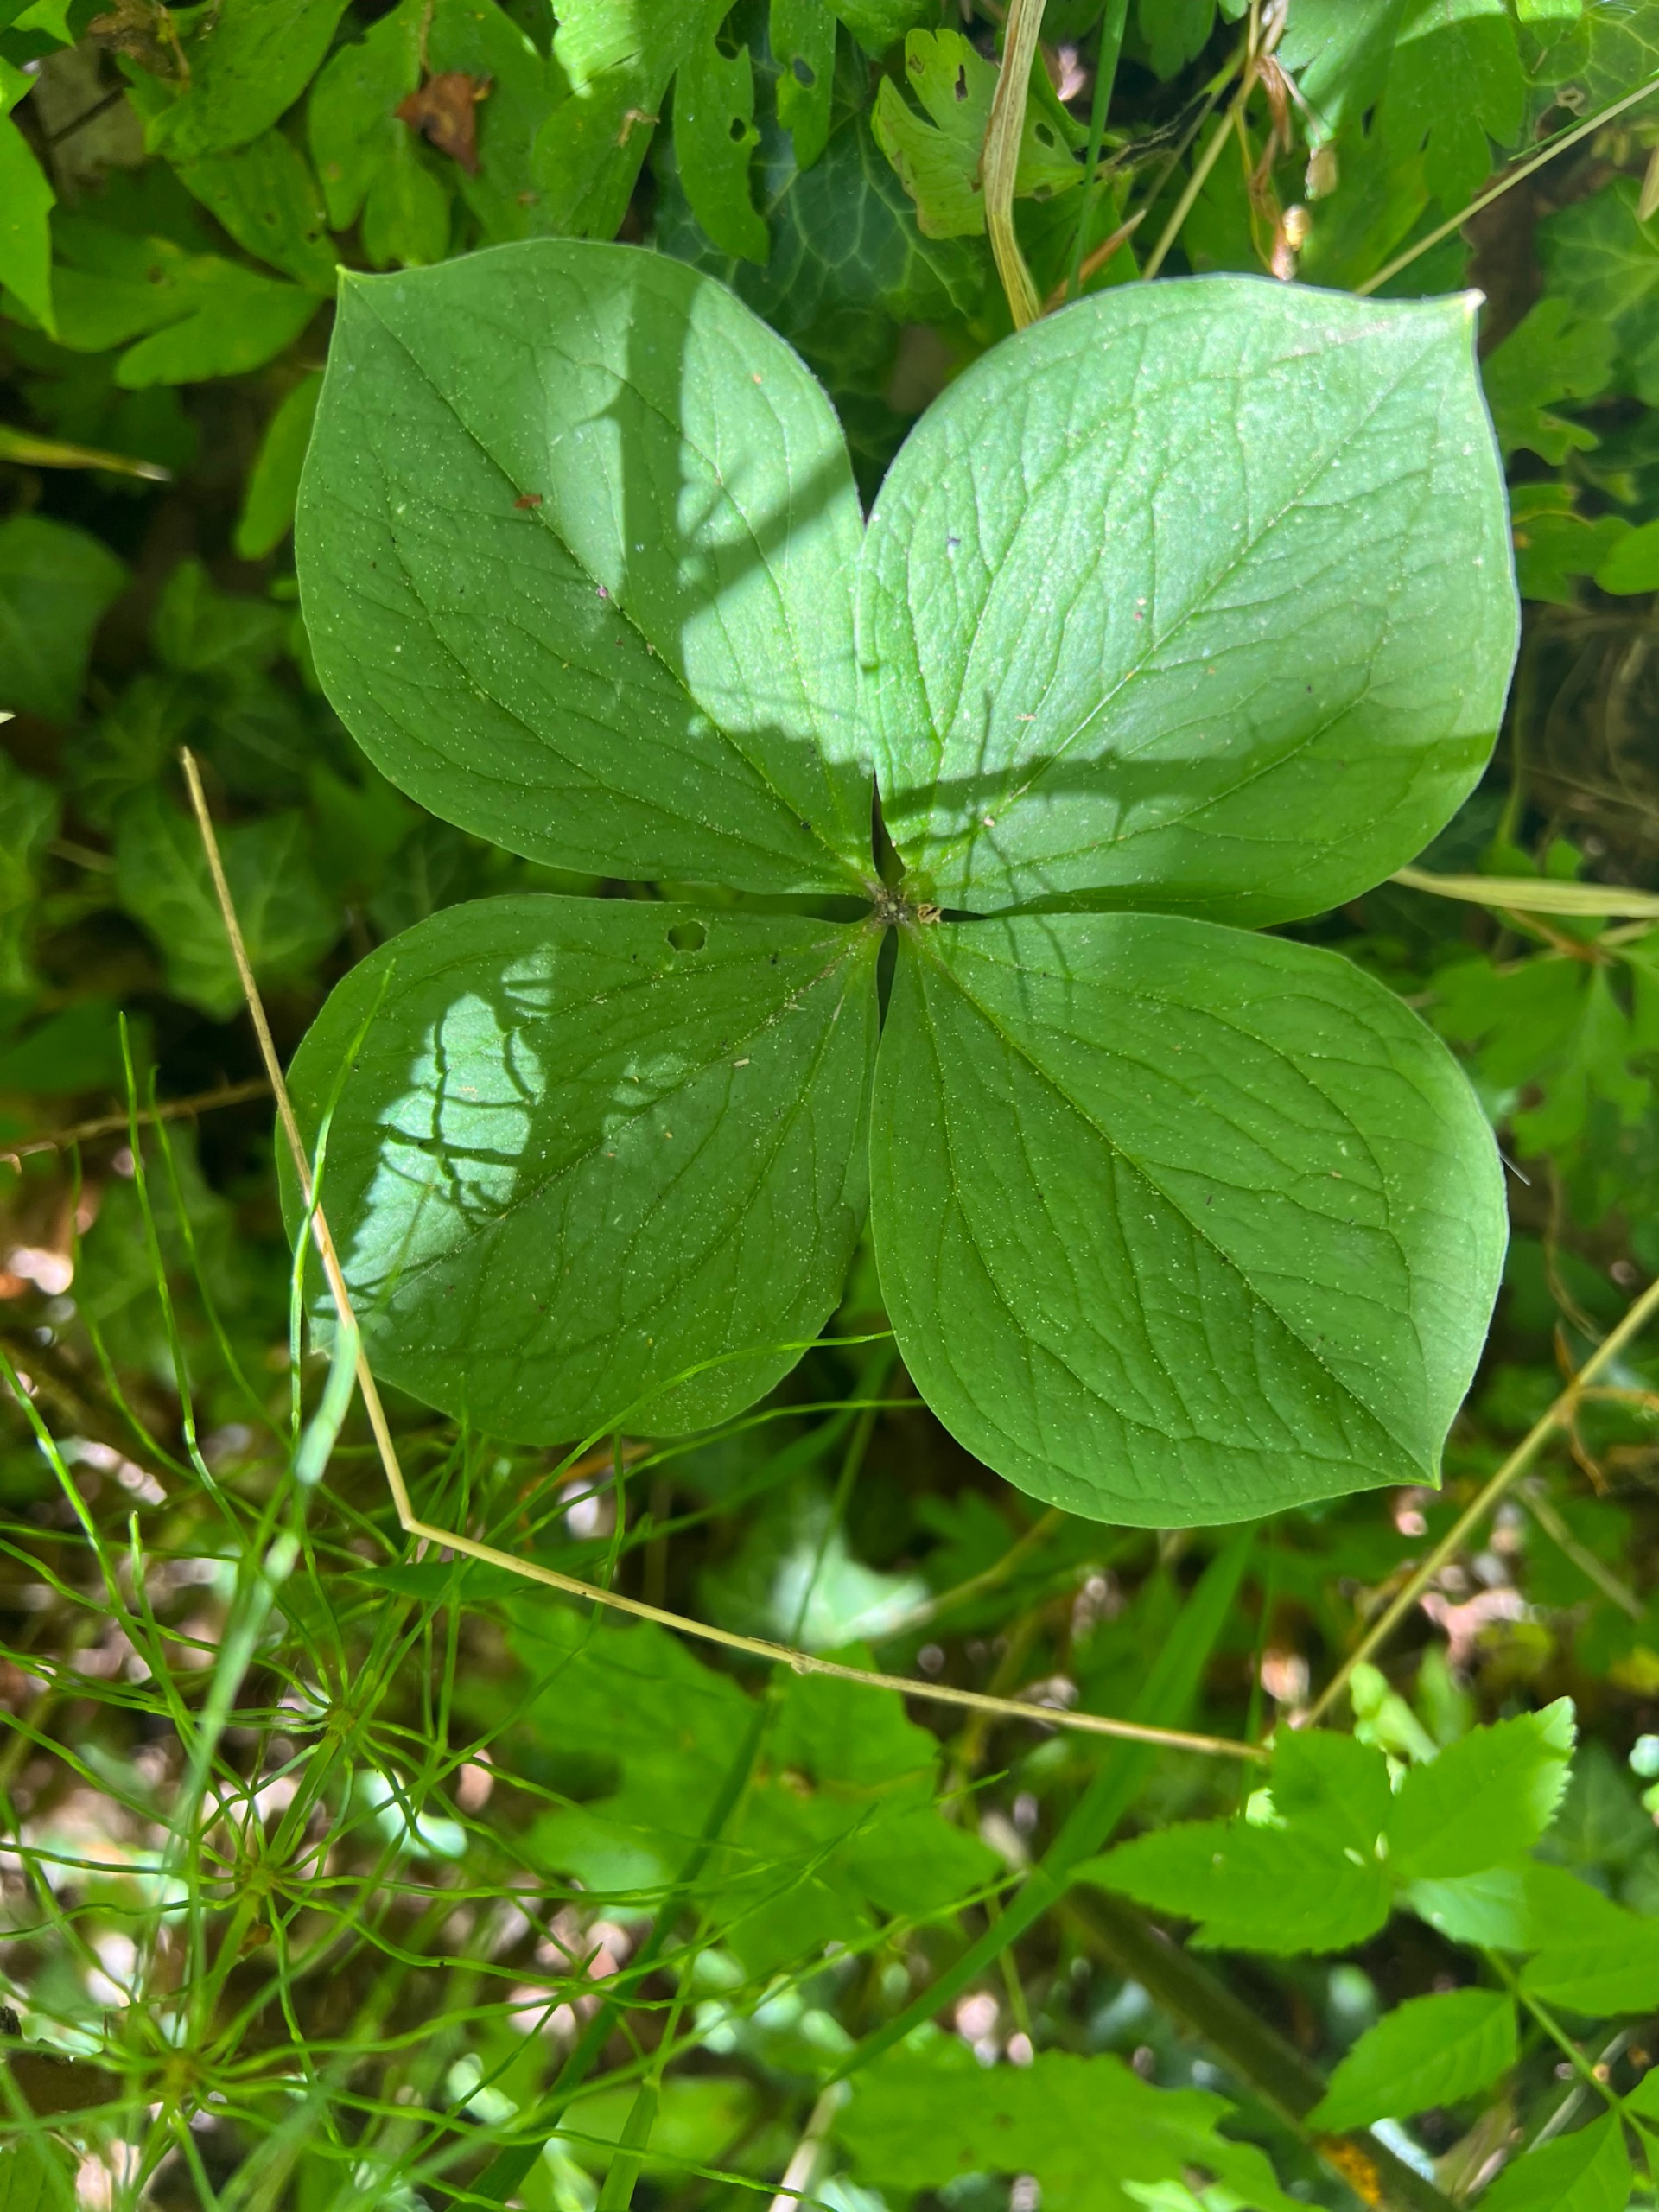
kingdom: Plantae
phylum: Tracheophyta
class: Liliopsida
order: Liliales
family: Melanthiaceae
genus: Paris
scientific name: Paris quadrifolia
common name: Firblad
